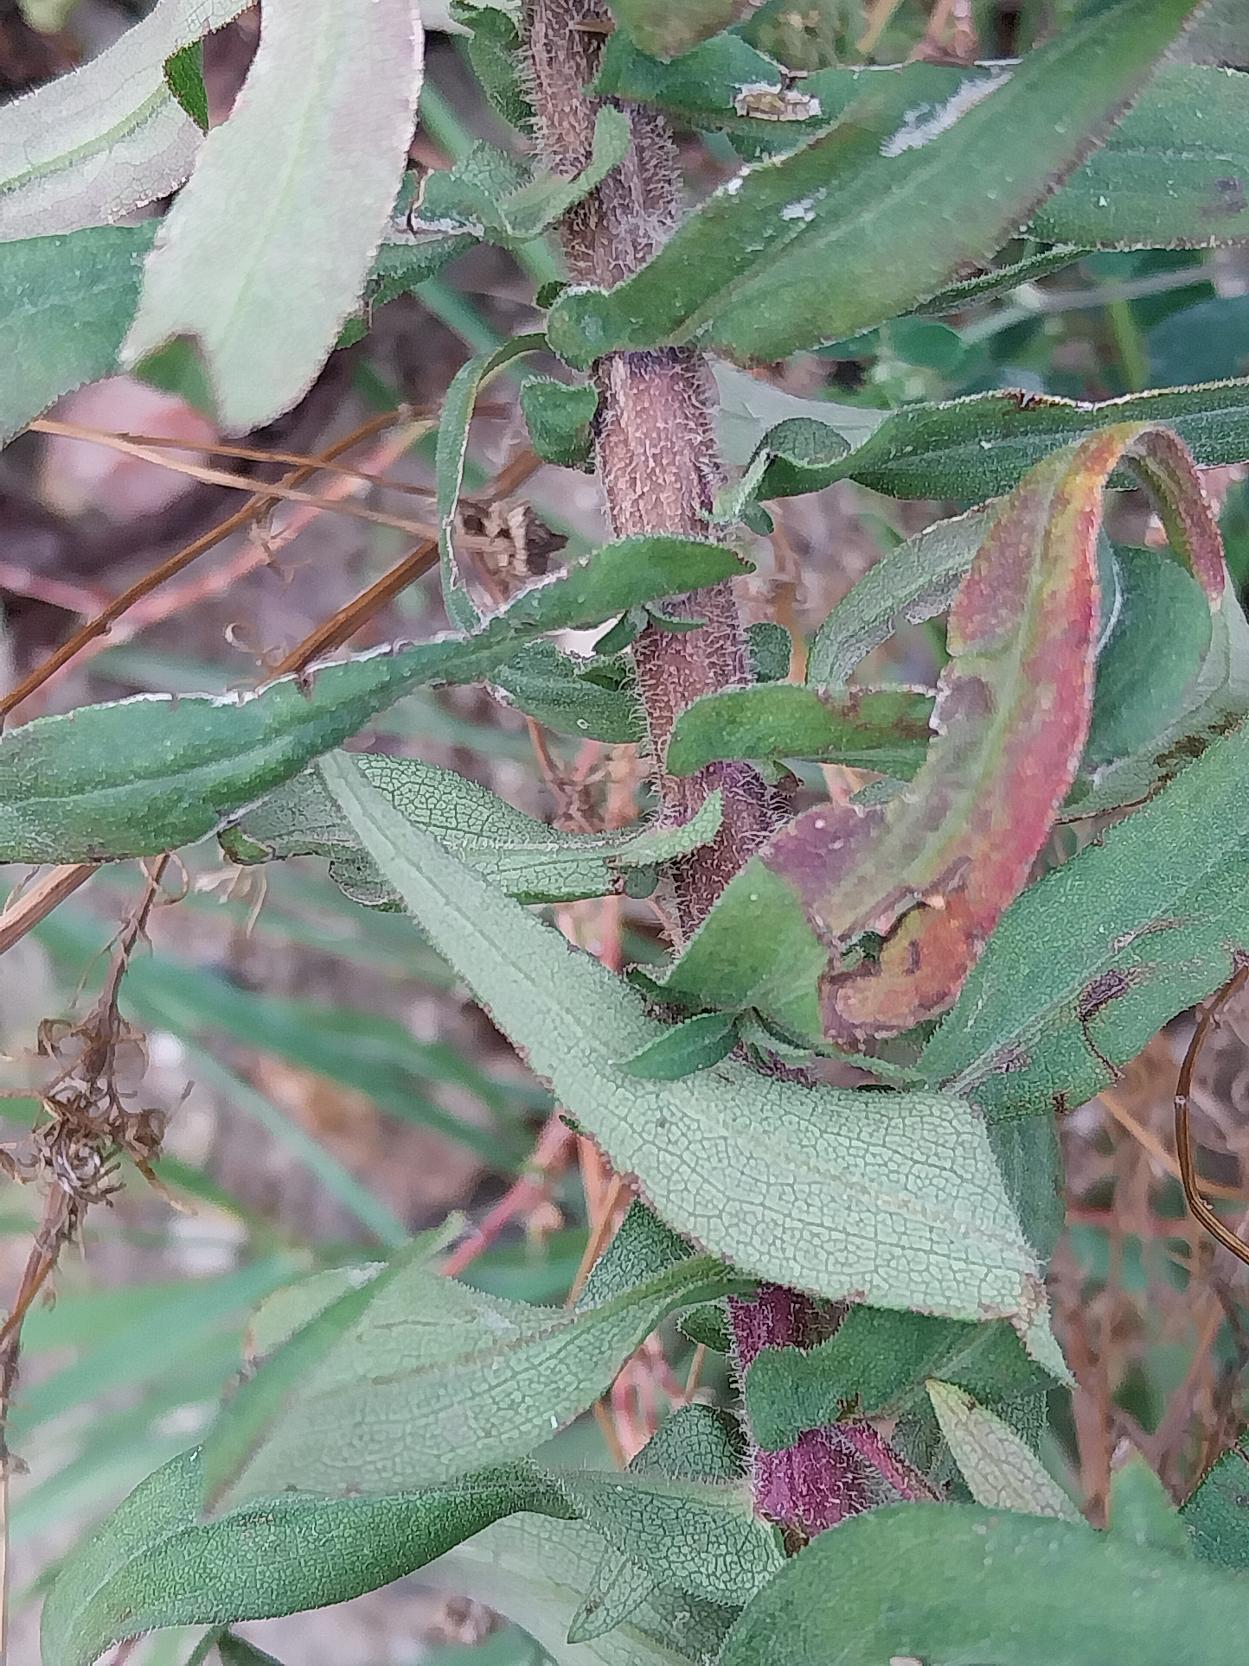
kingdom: Plantae
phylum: Tracheophyta
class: Magnoliopsida
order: Asterales
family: Asteraceae
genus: Symphyotrichum
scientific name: Symphyotrichum novae-angliae
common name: Nyengelsk asters
